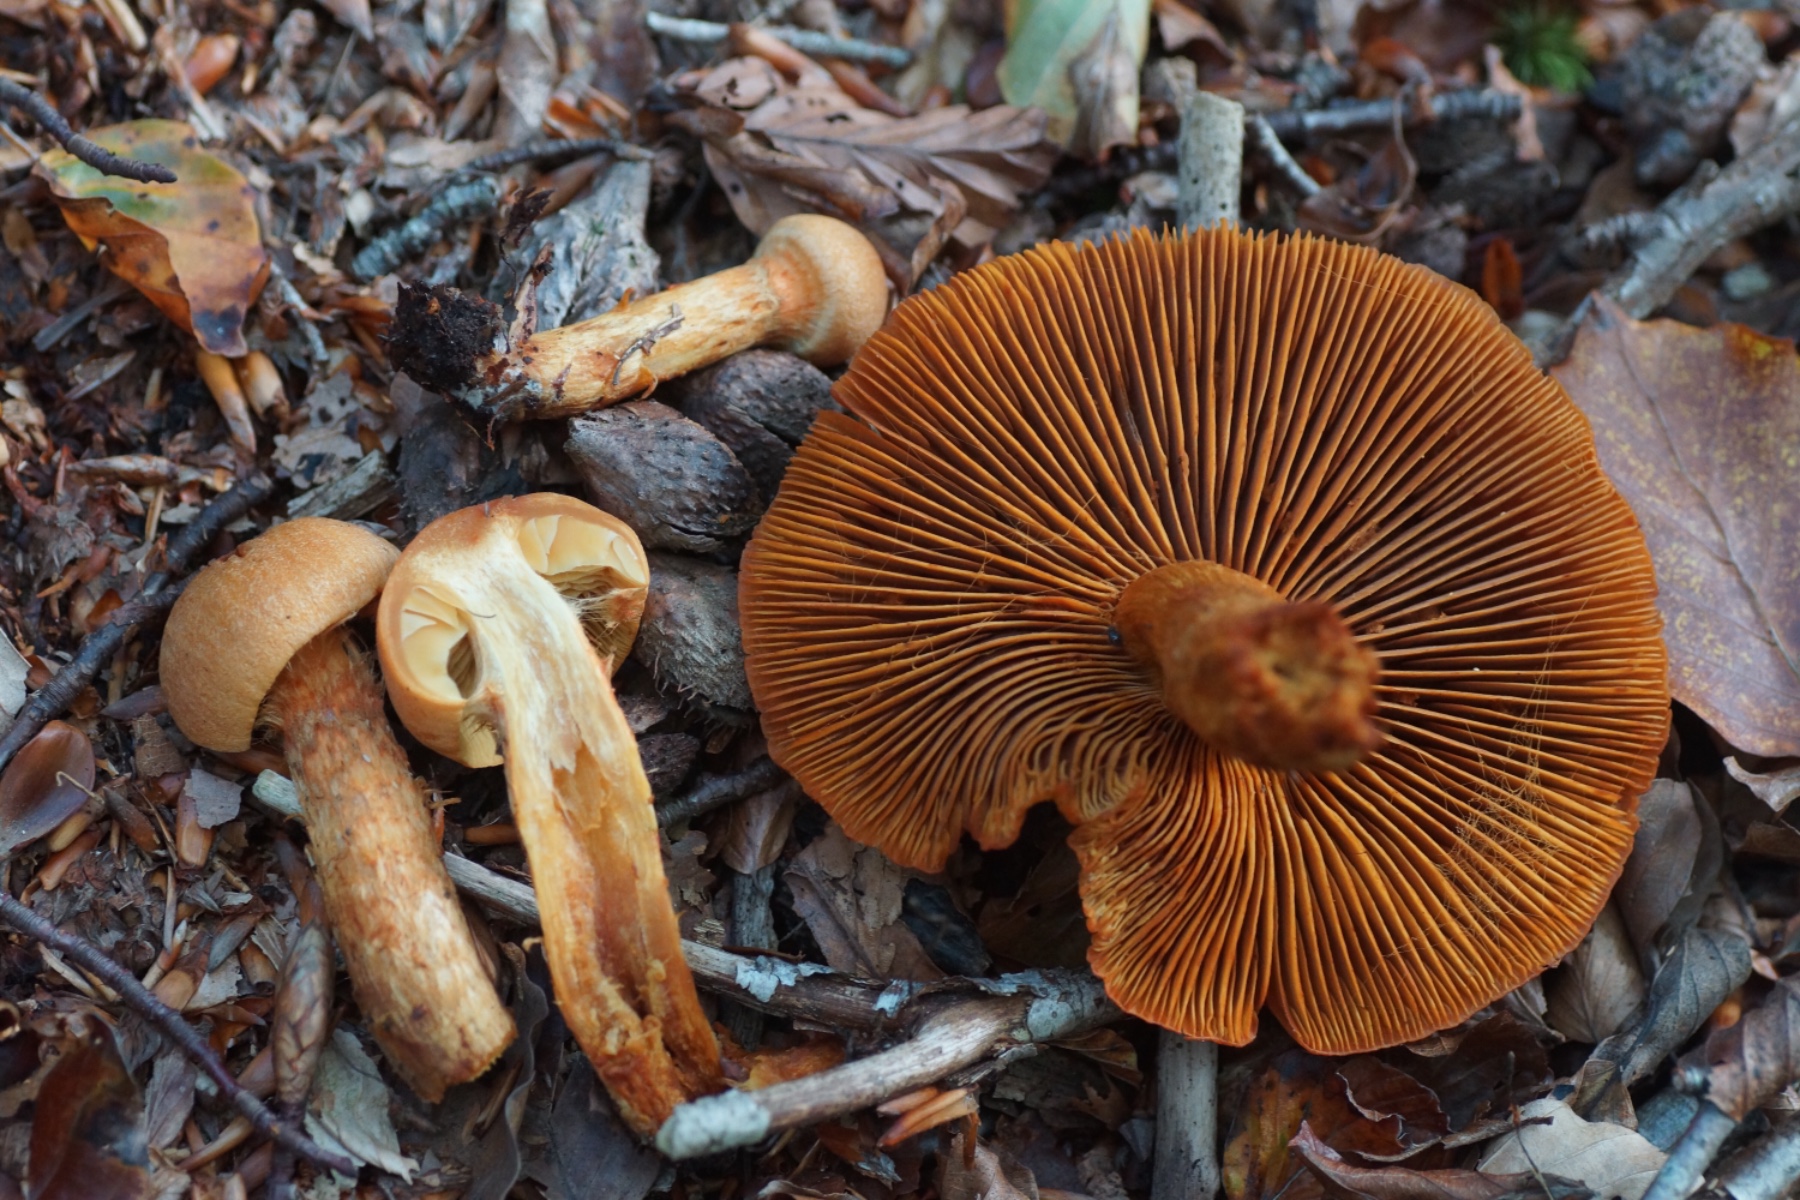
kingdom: Fungi
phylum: Basidiomycota
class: Agaricomycetes
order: Agaricales
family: Cortinariaceae
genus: Cortinarius
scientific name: Cortinarius
